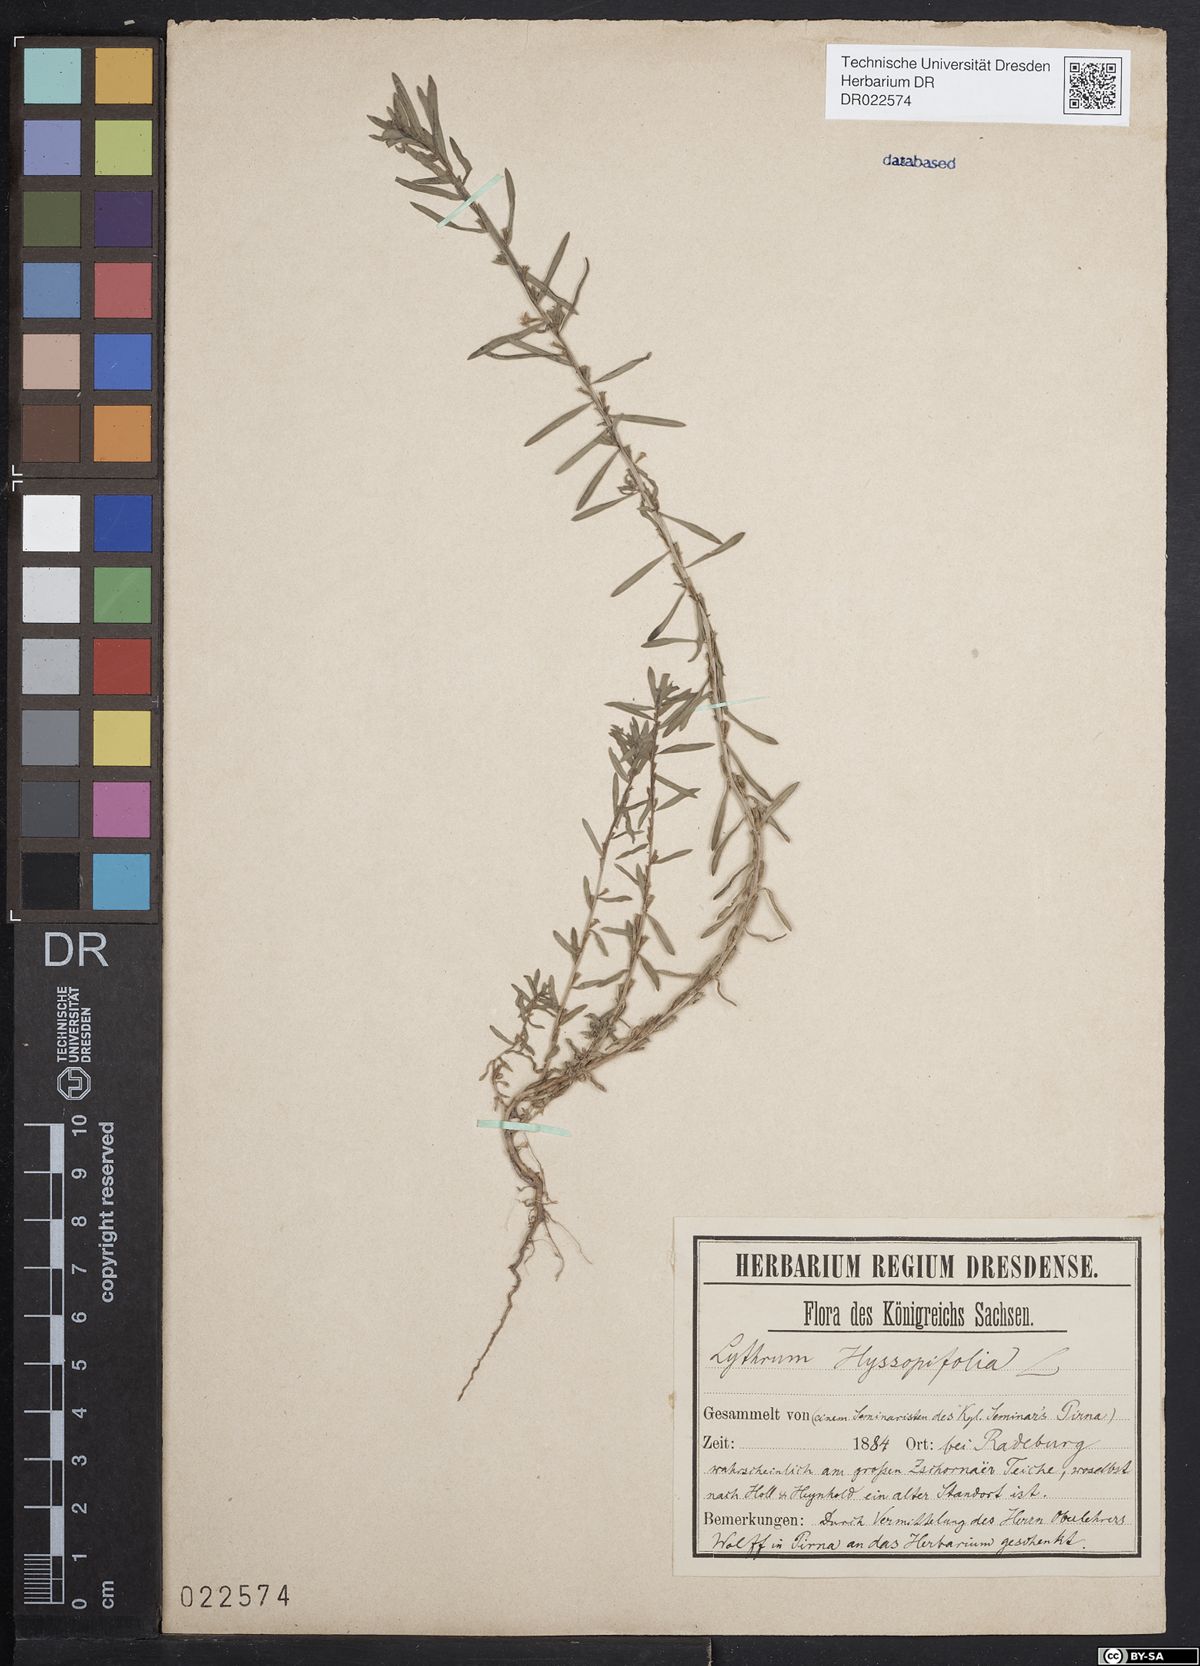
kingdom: Plantae
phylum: Tracheophyta
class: Magnoliopsida
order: Myrtales
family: Lythraceae
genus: Lythrum
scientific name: Lythrum hyssopifolia
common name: Grass-poly
